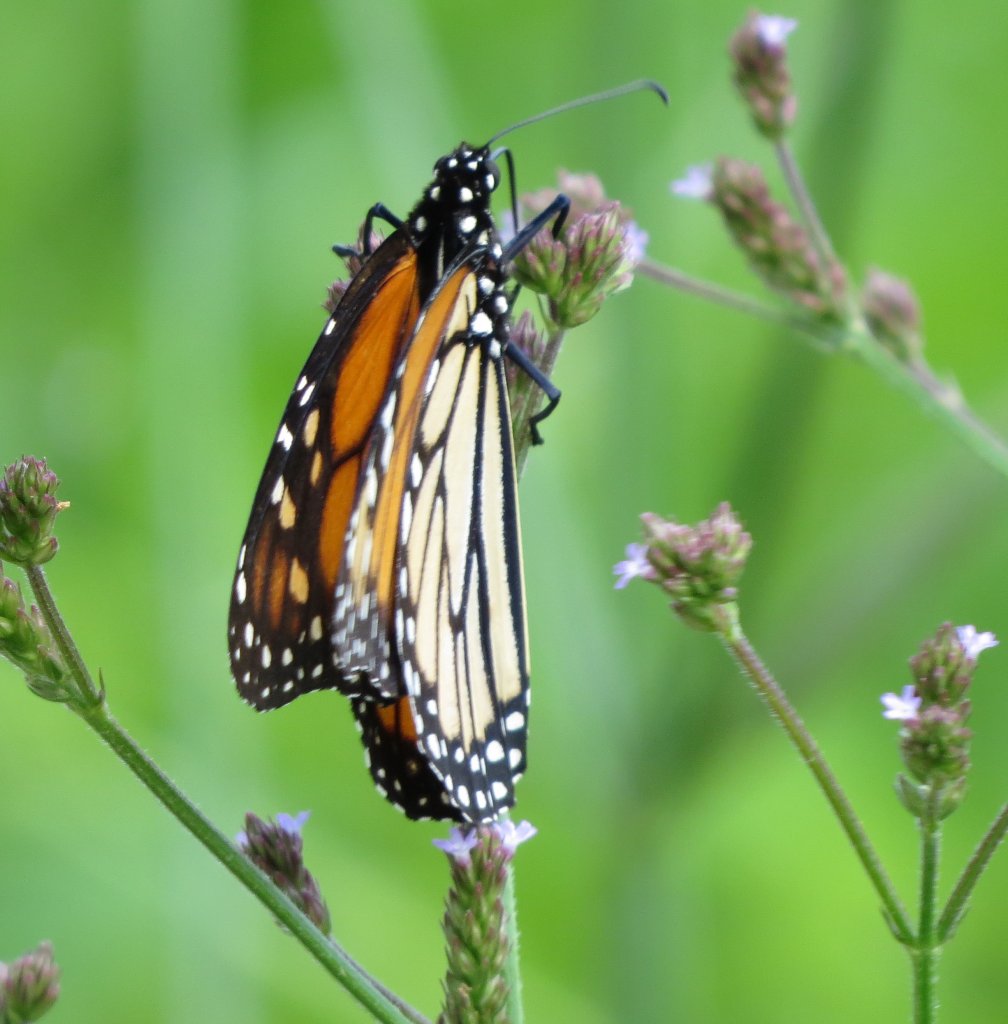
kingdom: Animalia
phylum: Arthropoda
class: Insecta
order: Lepidoptera
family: Nymphalidae
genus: Limenitis
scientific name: Limenitis archippus
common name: Viceroy
